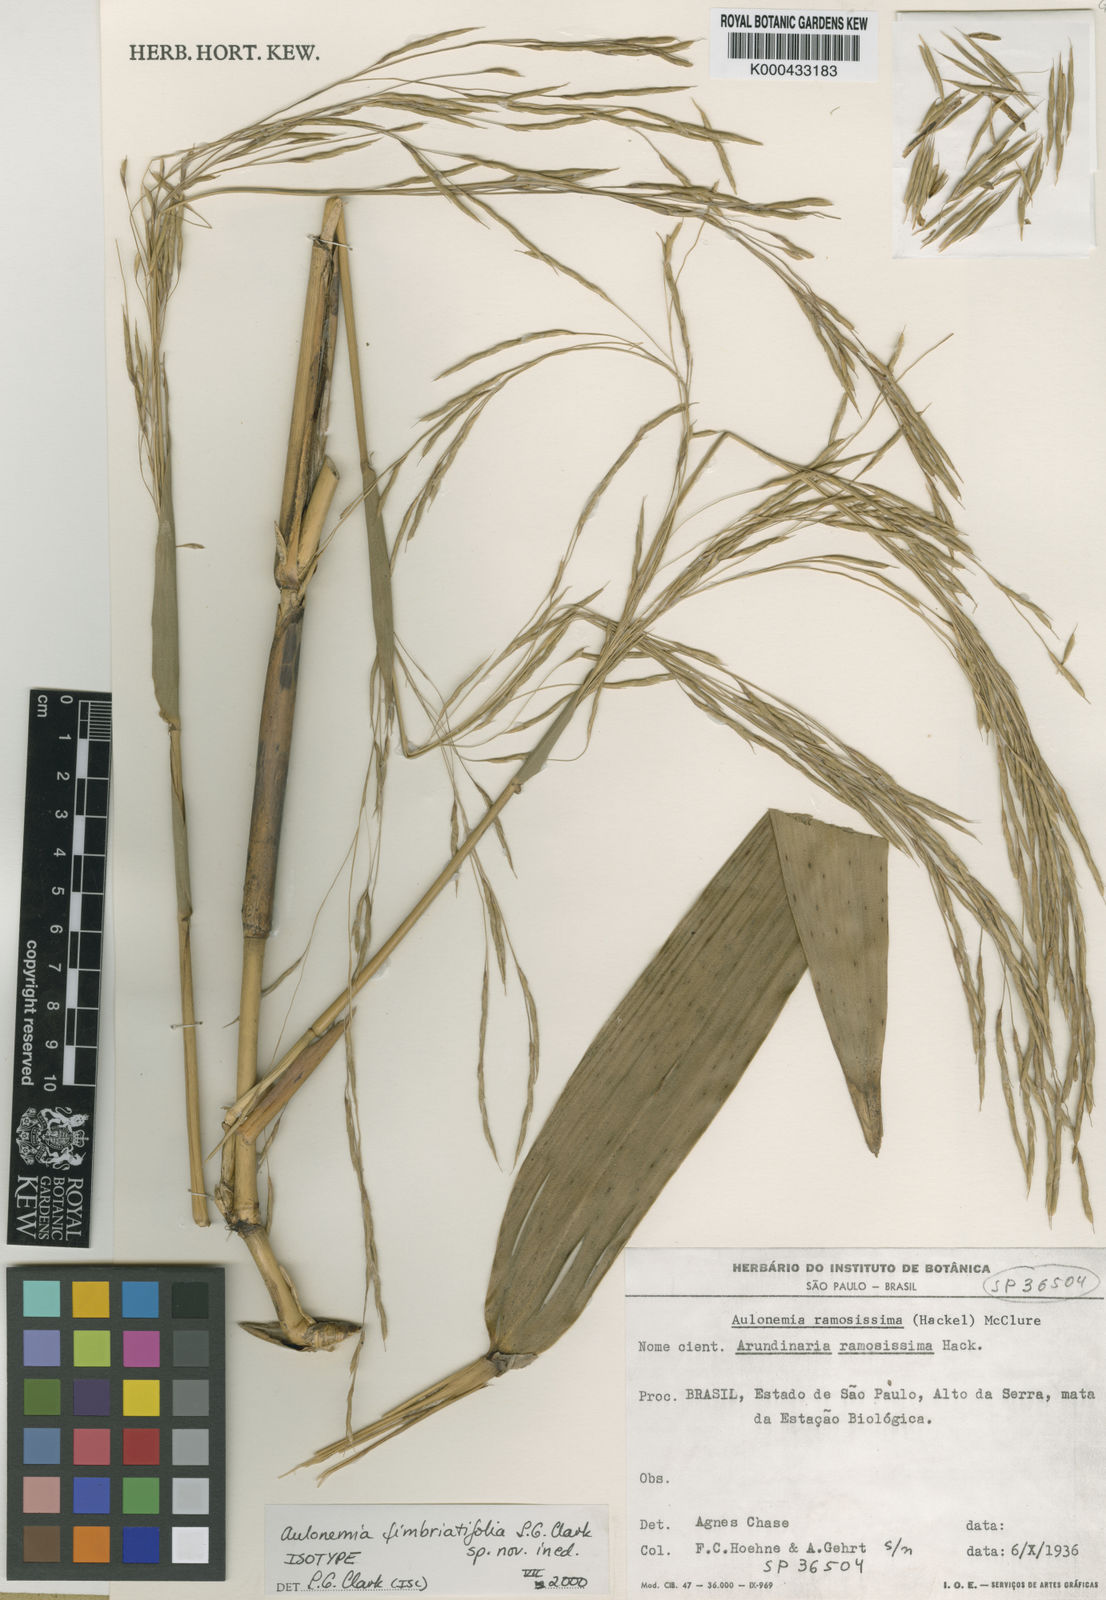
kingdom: Plantae
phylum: Tracheophyta
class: Liliopsida
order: Poales
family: Poaceae
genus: Aulonemia
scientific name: Aulonemia radiata
